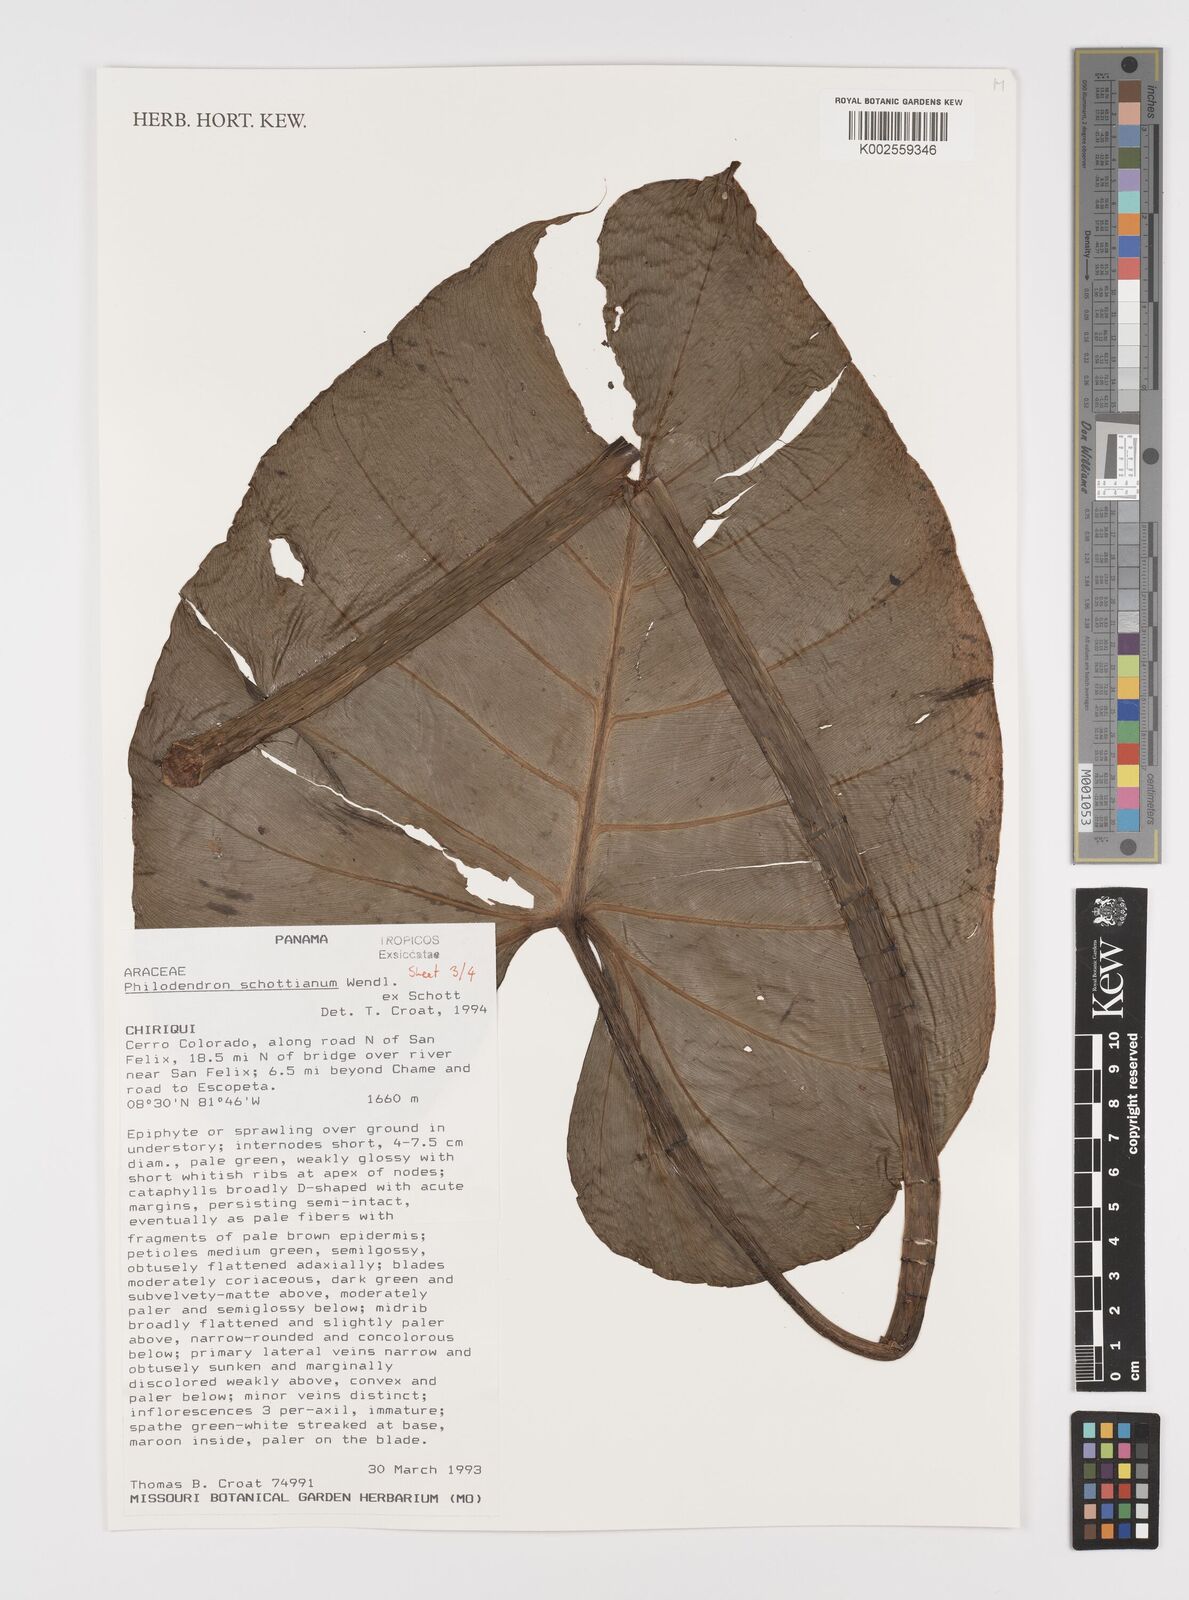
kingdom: Plantae
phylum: Tracheophyta
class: Liliopsida
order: Alismatales
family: Araceae
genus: Philodendron
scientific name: Philodendron schottianum
